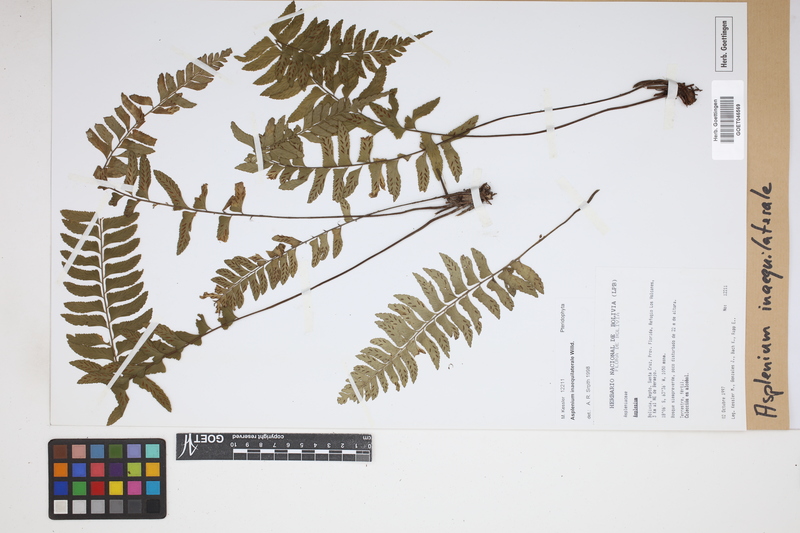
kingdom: Plantae
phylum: Tracheophyta
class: Polypodiopsida
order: Polypodiales
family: Aspleniaceae
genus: Asplenium
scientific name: Asplenium inaequilaterale
